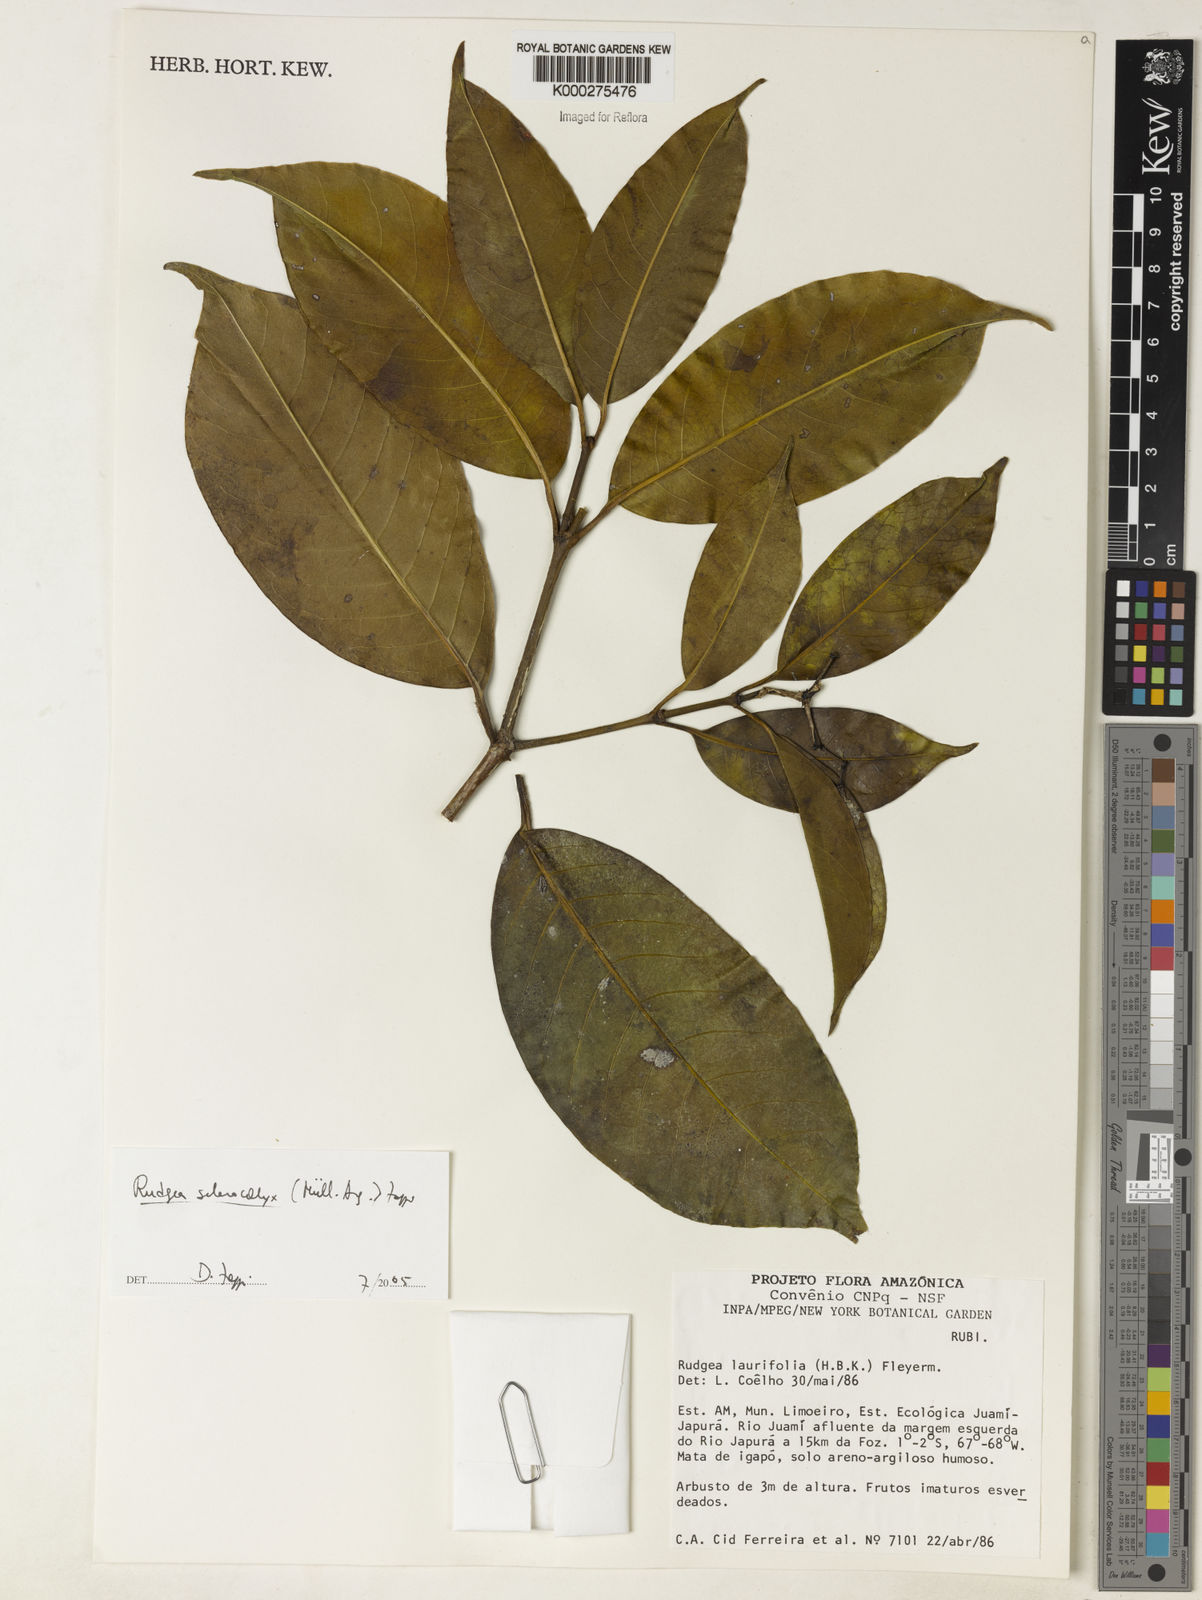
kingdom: Plantae
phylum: Tracheophyta
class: Magnoliopsida
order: Gentianales
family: Rubiaceae
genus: Rudgea
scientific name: Rudgea sclerocalyx
